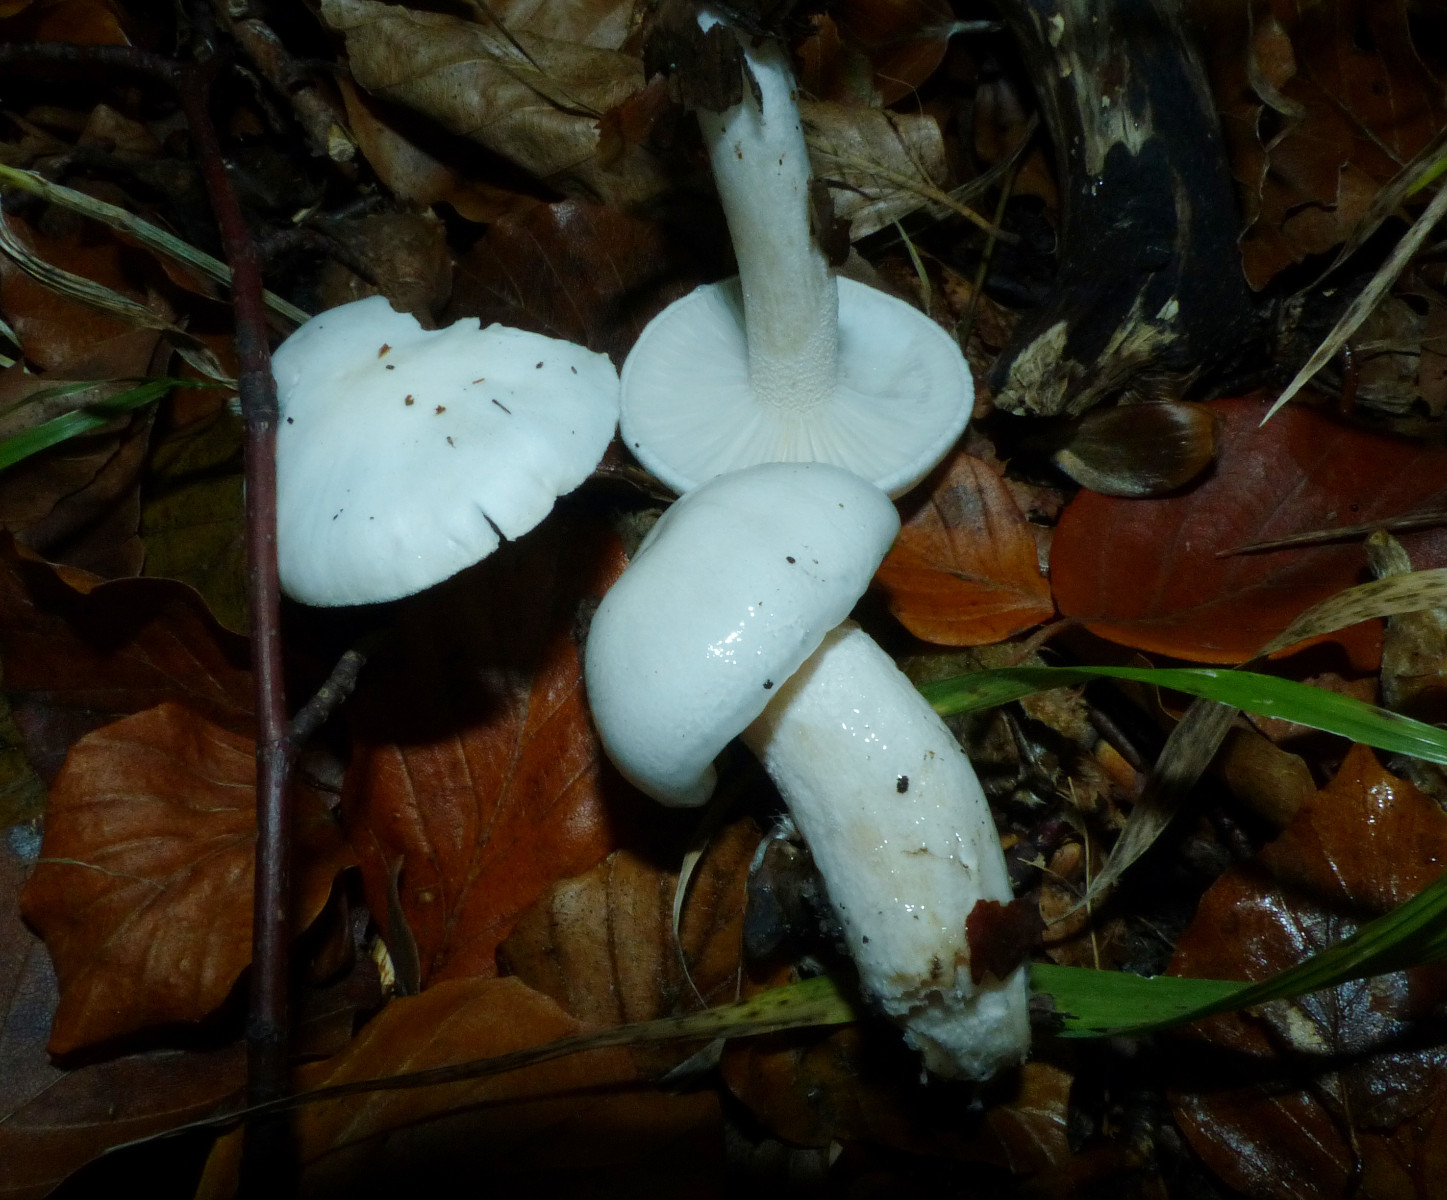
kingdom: Fungi
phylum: Basidiomycota
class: Agaricomycetes
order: Agaricales
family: Hygrophoraceae
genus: Hygrophorus
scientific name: Hygrophorus eburneus
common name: elfenbens-sneglehat
